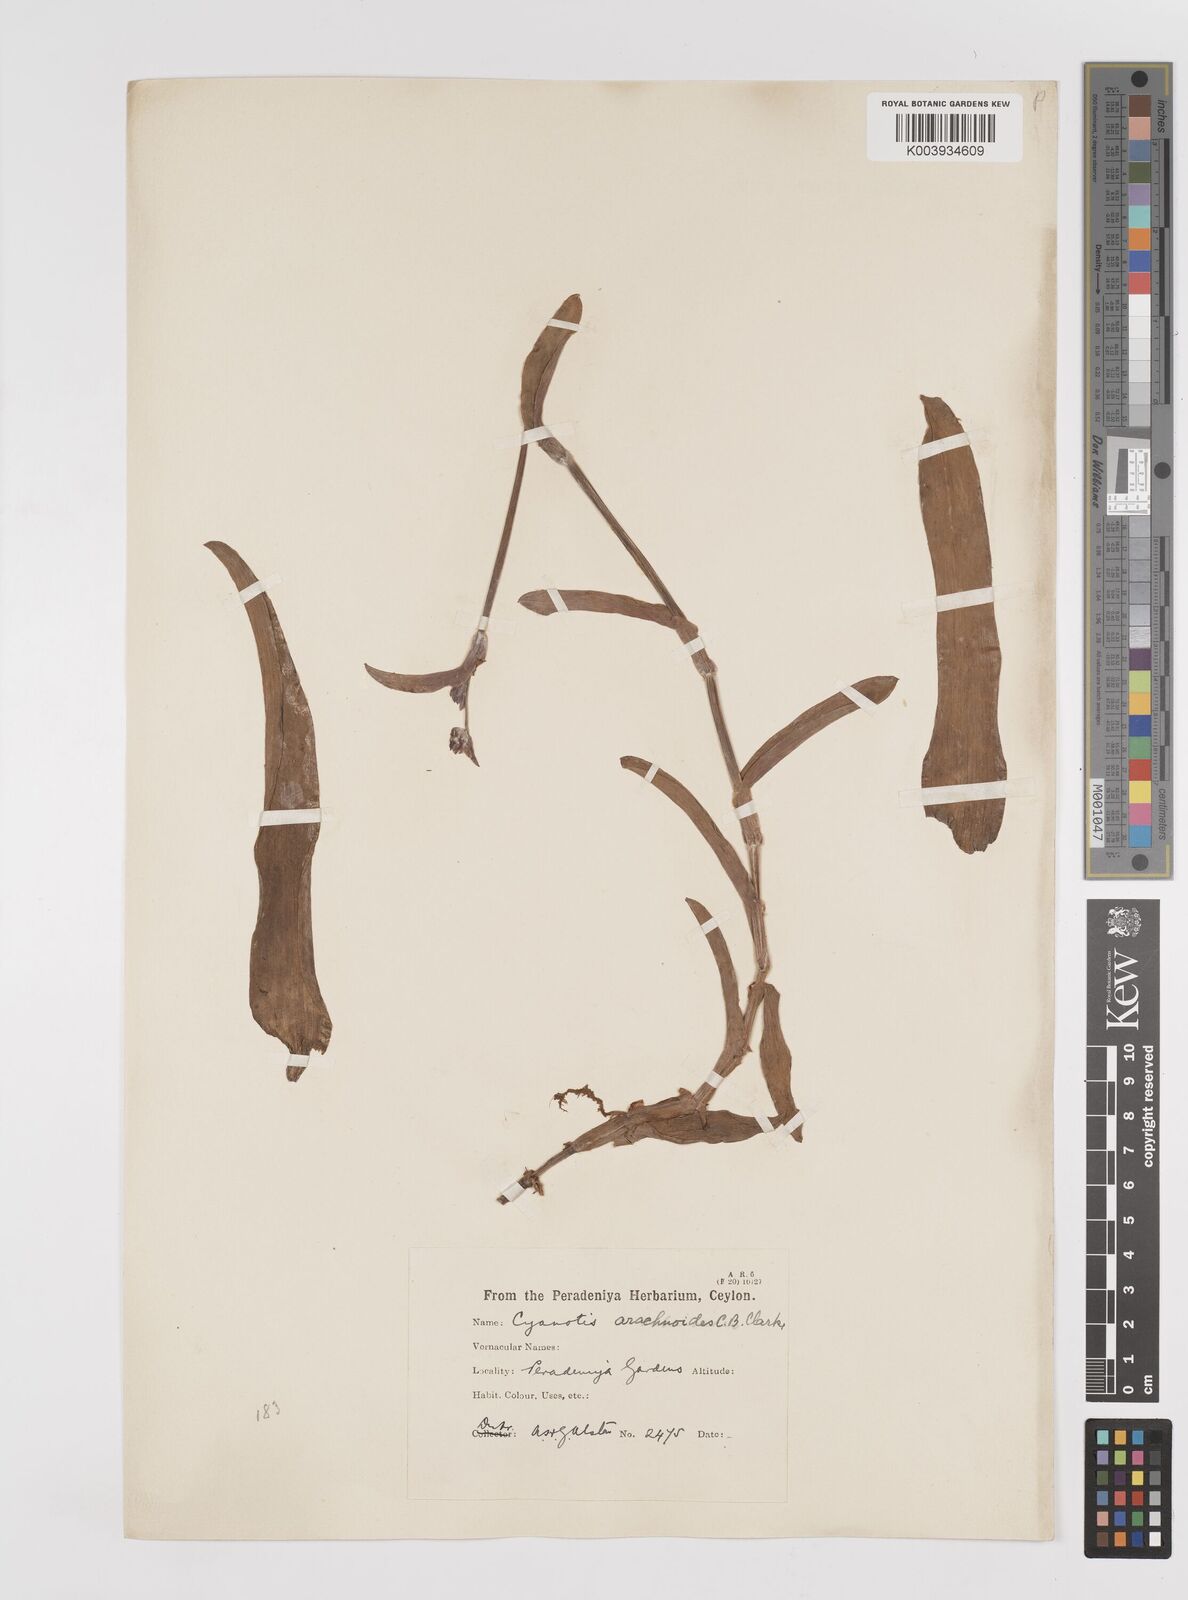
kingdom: Plantae
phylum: Tracheophyta
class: Liliopsida
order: Commelinales
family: Commelinaceae
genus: Cyanotis
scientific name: Cyanotis arachnoidea
